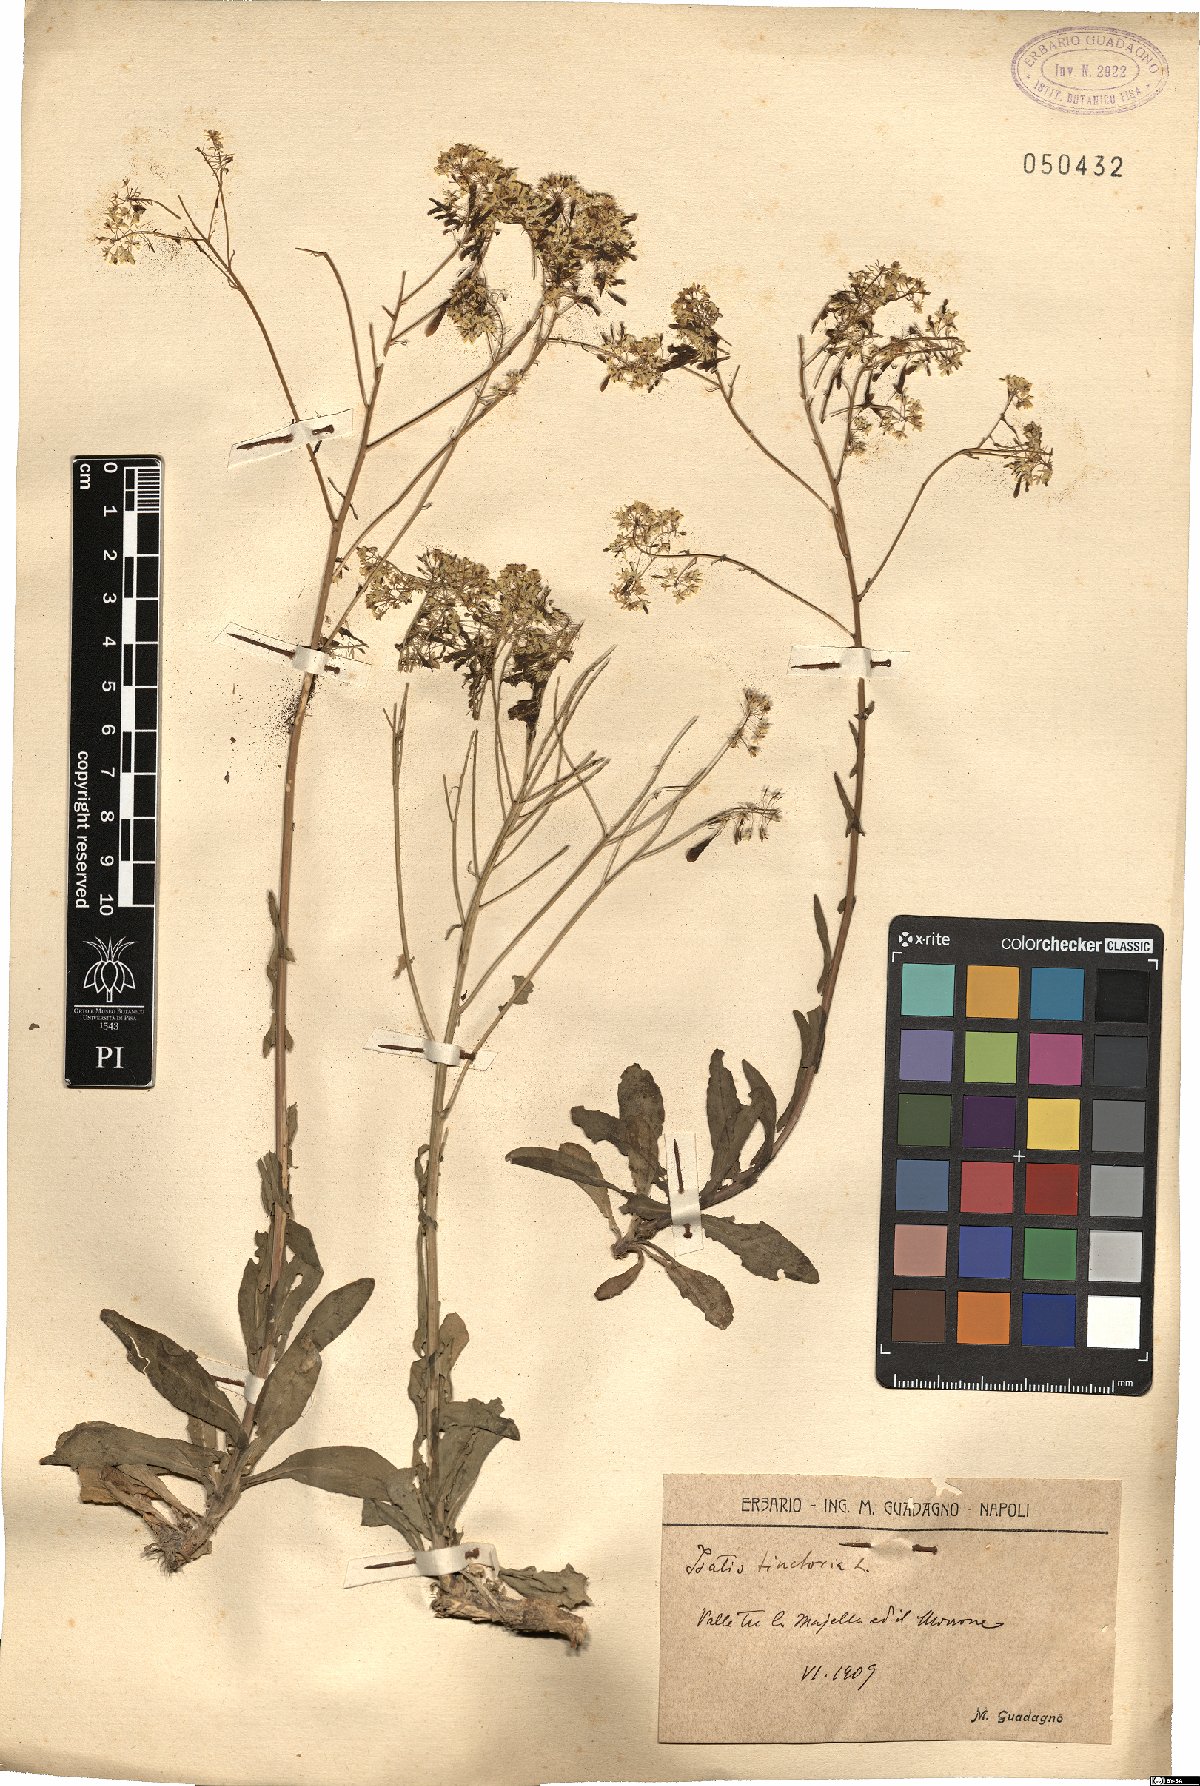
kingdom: Plantae
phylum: Tracheophyta
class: Magnoliopsida
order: Brassicales
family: Brassicaceae
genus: Isatis
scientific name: Isatis tinctoria
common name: Woad
